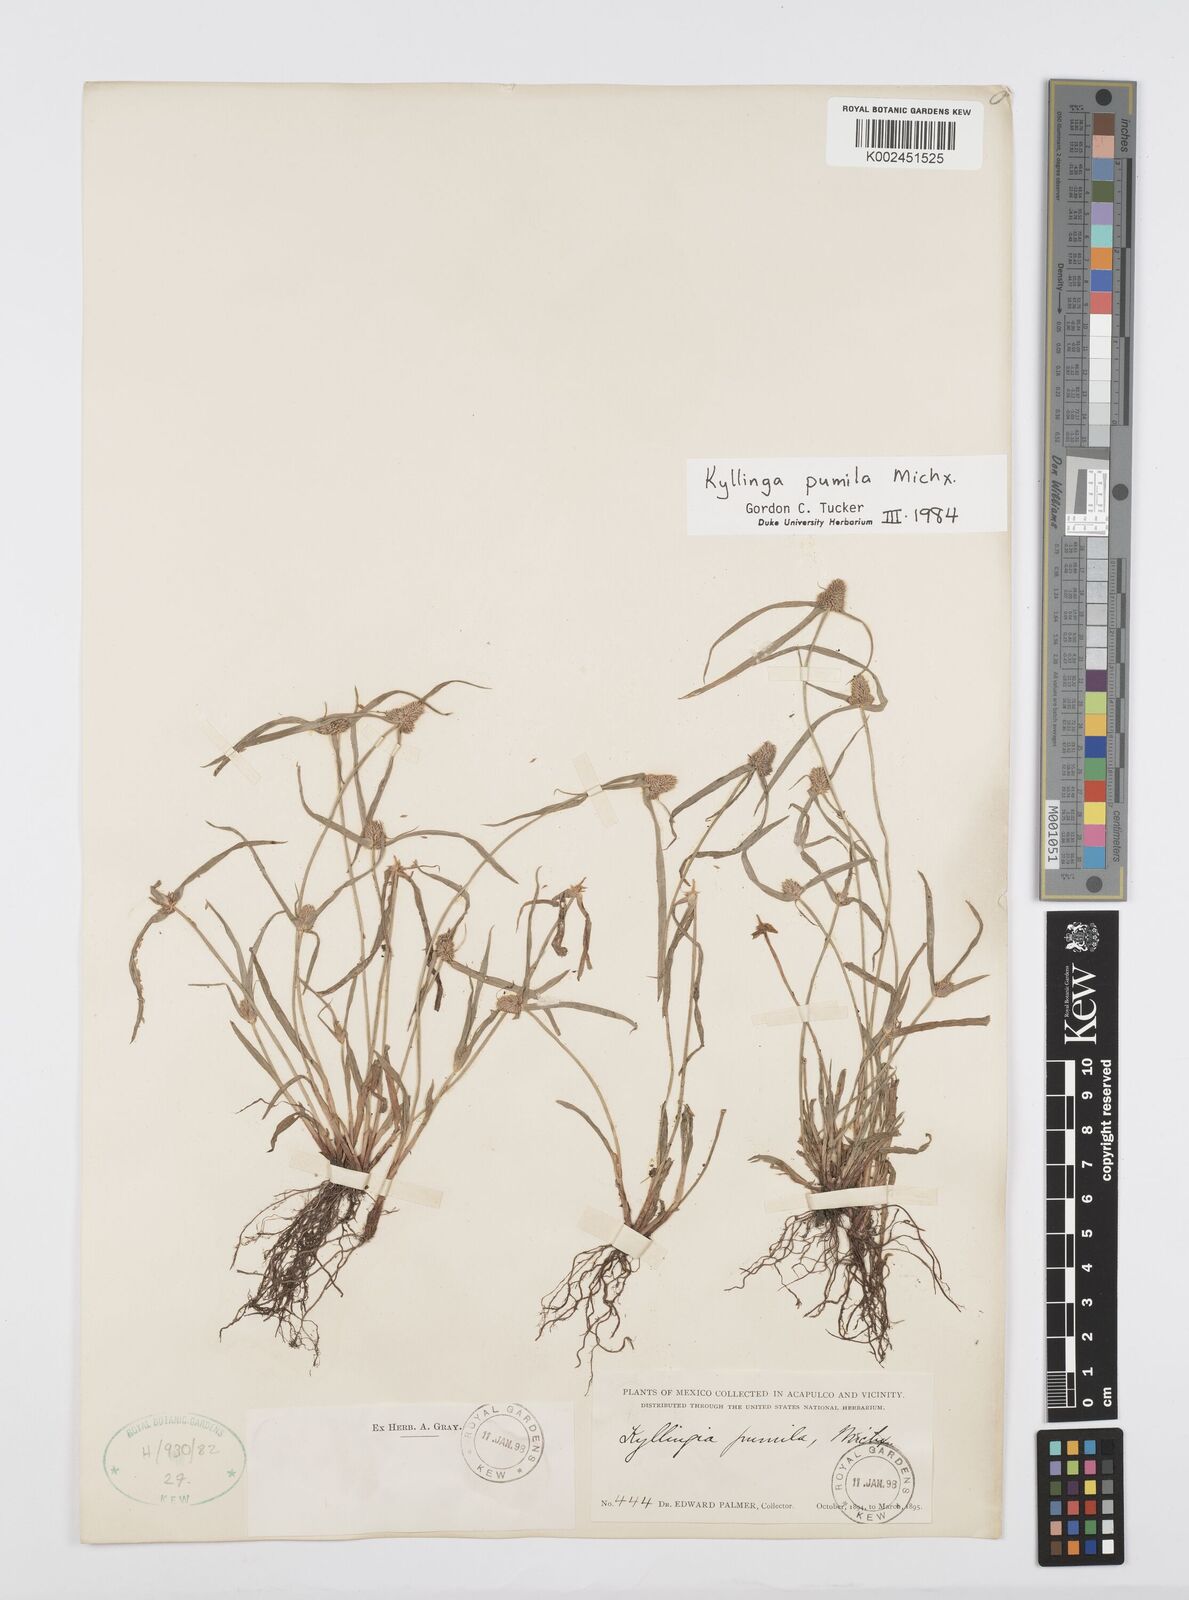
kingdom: Plantae
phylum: Tracheophyta
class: Liliopsida
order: Poales
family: Cyperaceae
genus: Cyperus
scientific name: Cyperus hortensis
